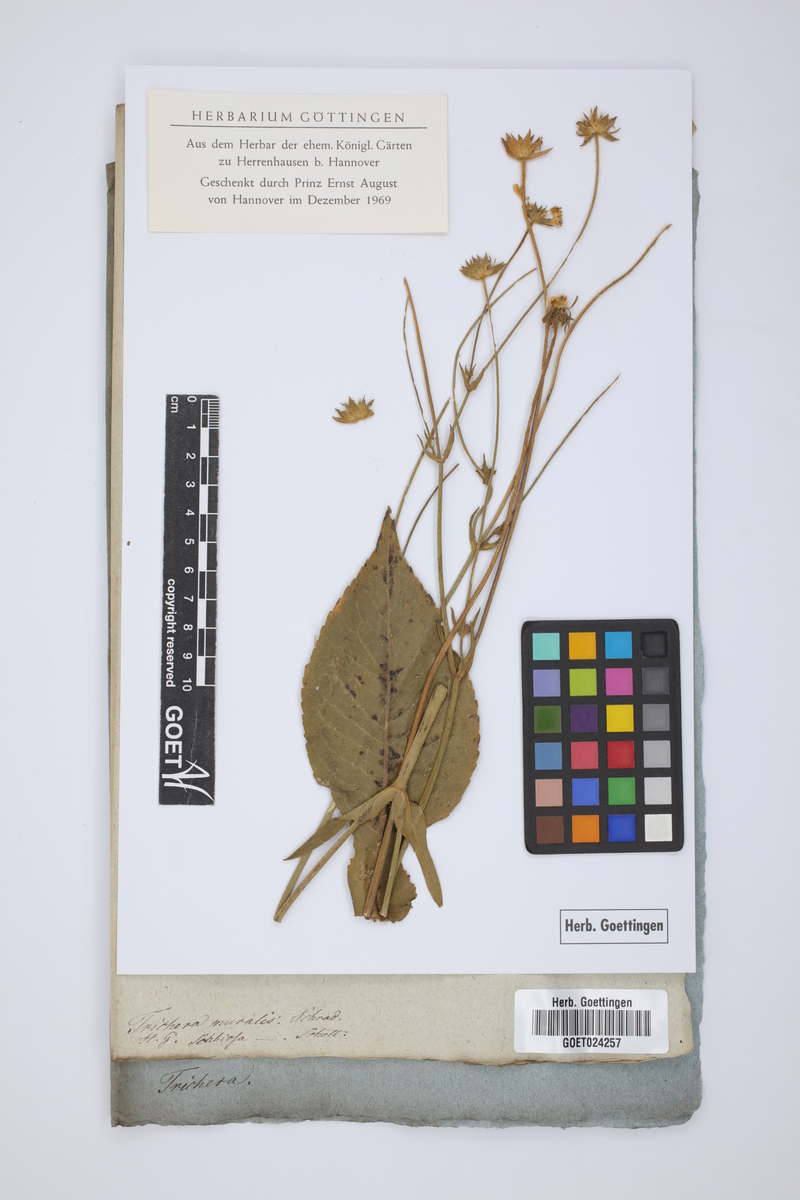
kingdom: Plantae
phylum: Tracheophyta
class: Magnoliopsida
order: Dipsacales
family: Caprifoliaceae
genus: Trichera
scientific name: Trichera
